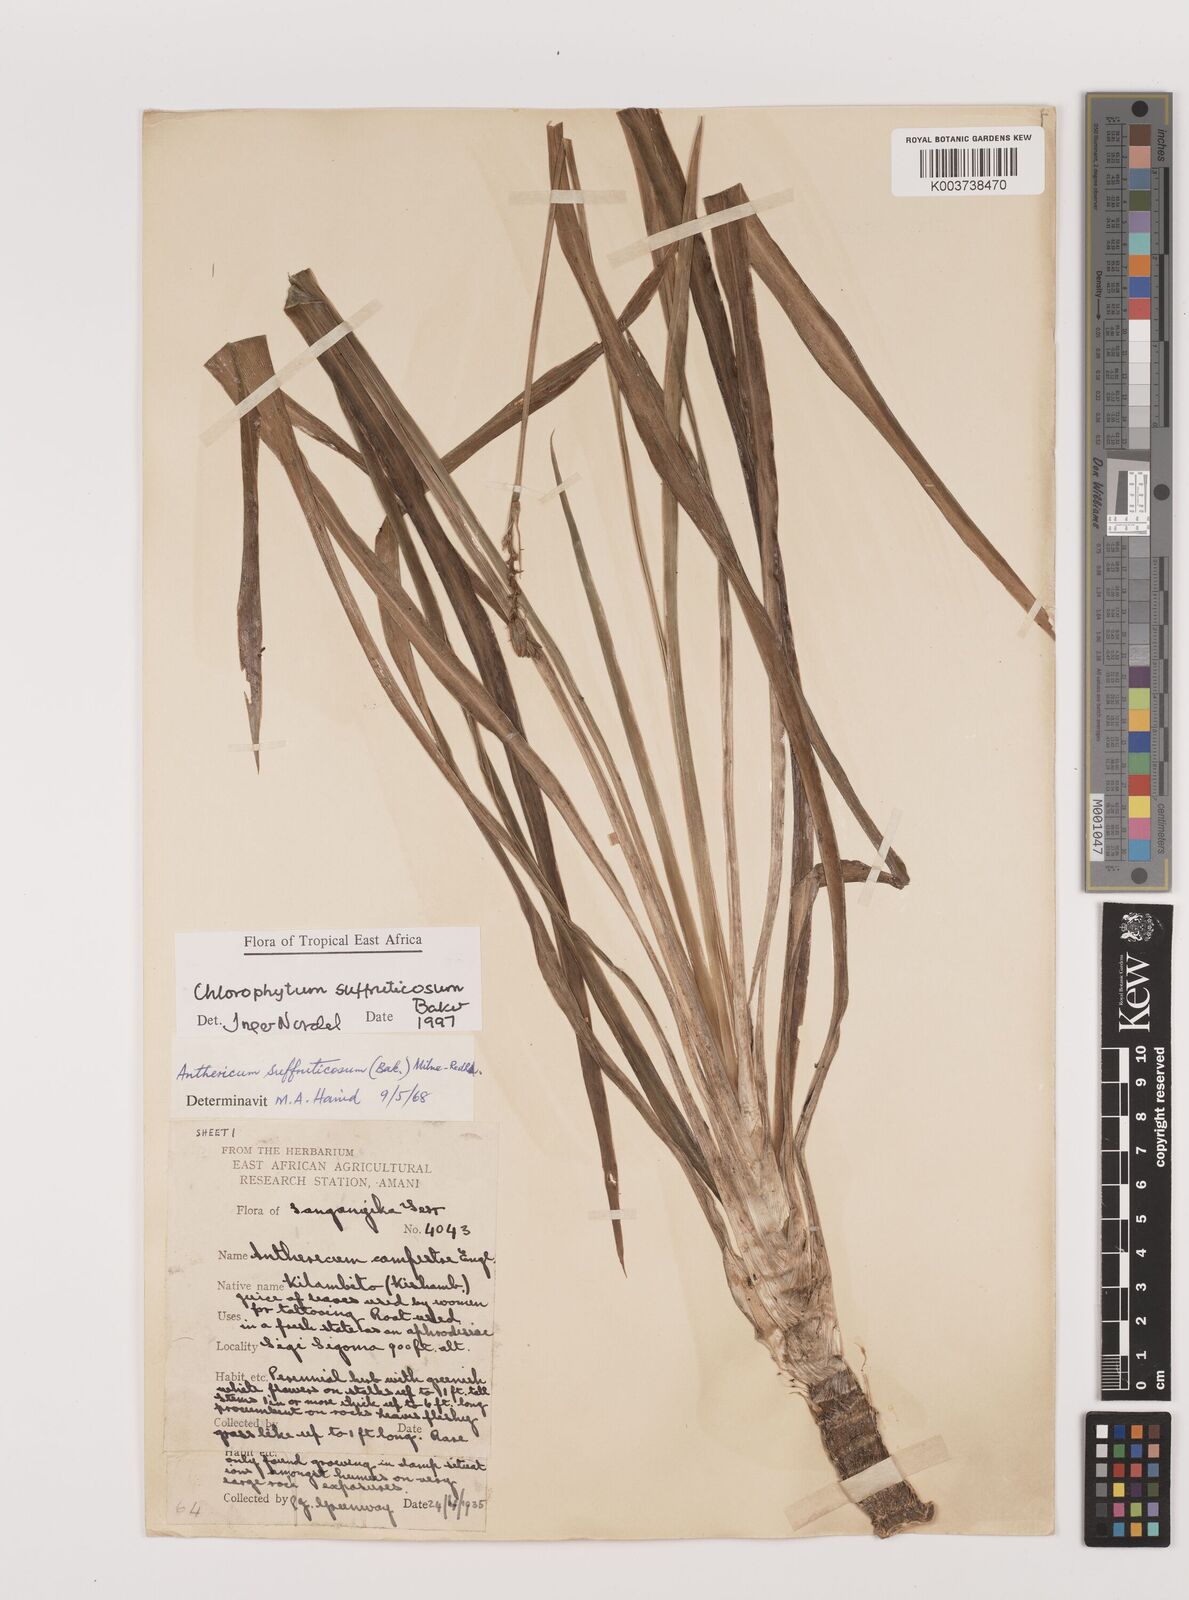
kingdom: Plantae
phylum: Tracheophyta
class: Liliopsida
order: Asparagales
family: Asparagaceae
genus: Chlorophytum
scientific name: Chlorophytum suffruticosum
